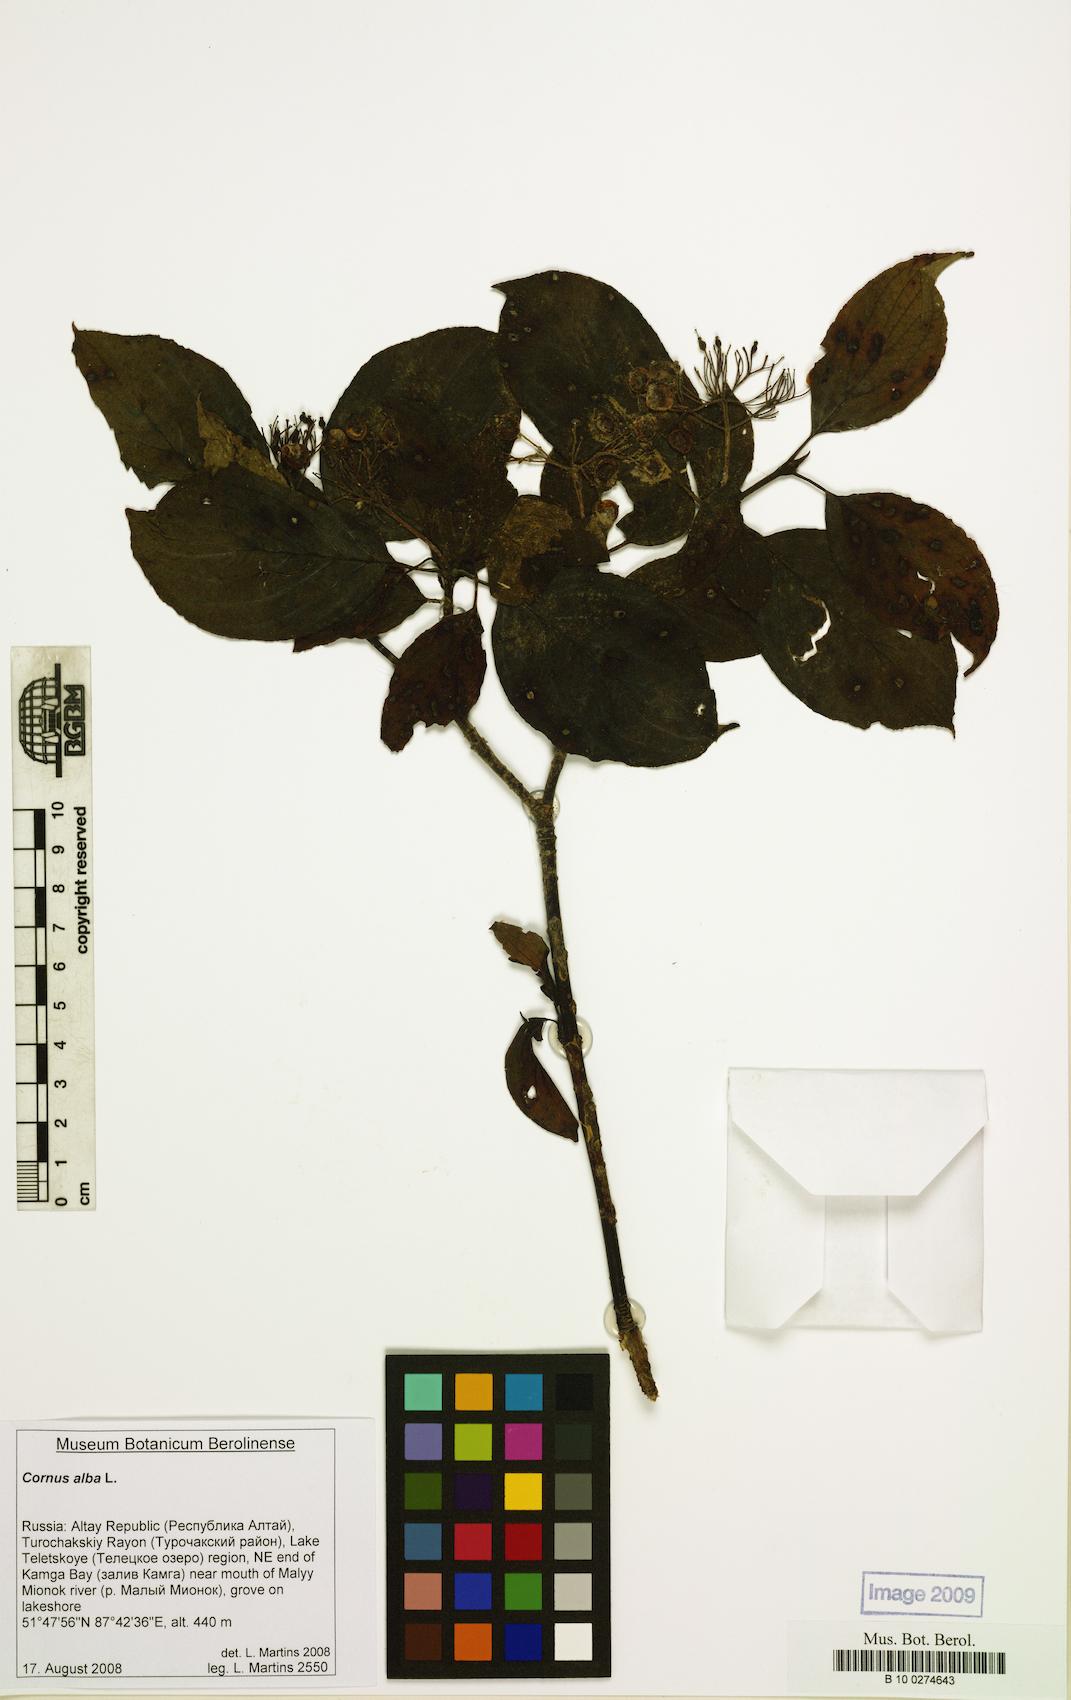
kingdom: Plantae
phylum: Tracheophyta
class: Magnoliopsida
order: Cornales
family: Cornaceae
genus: Cornus
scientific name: Cornus alba
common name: White dogwood
